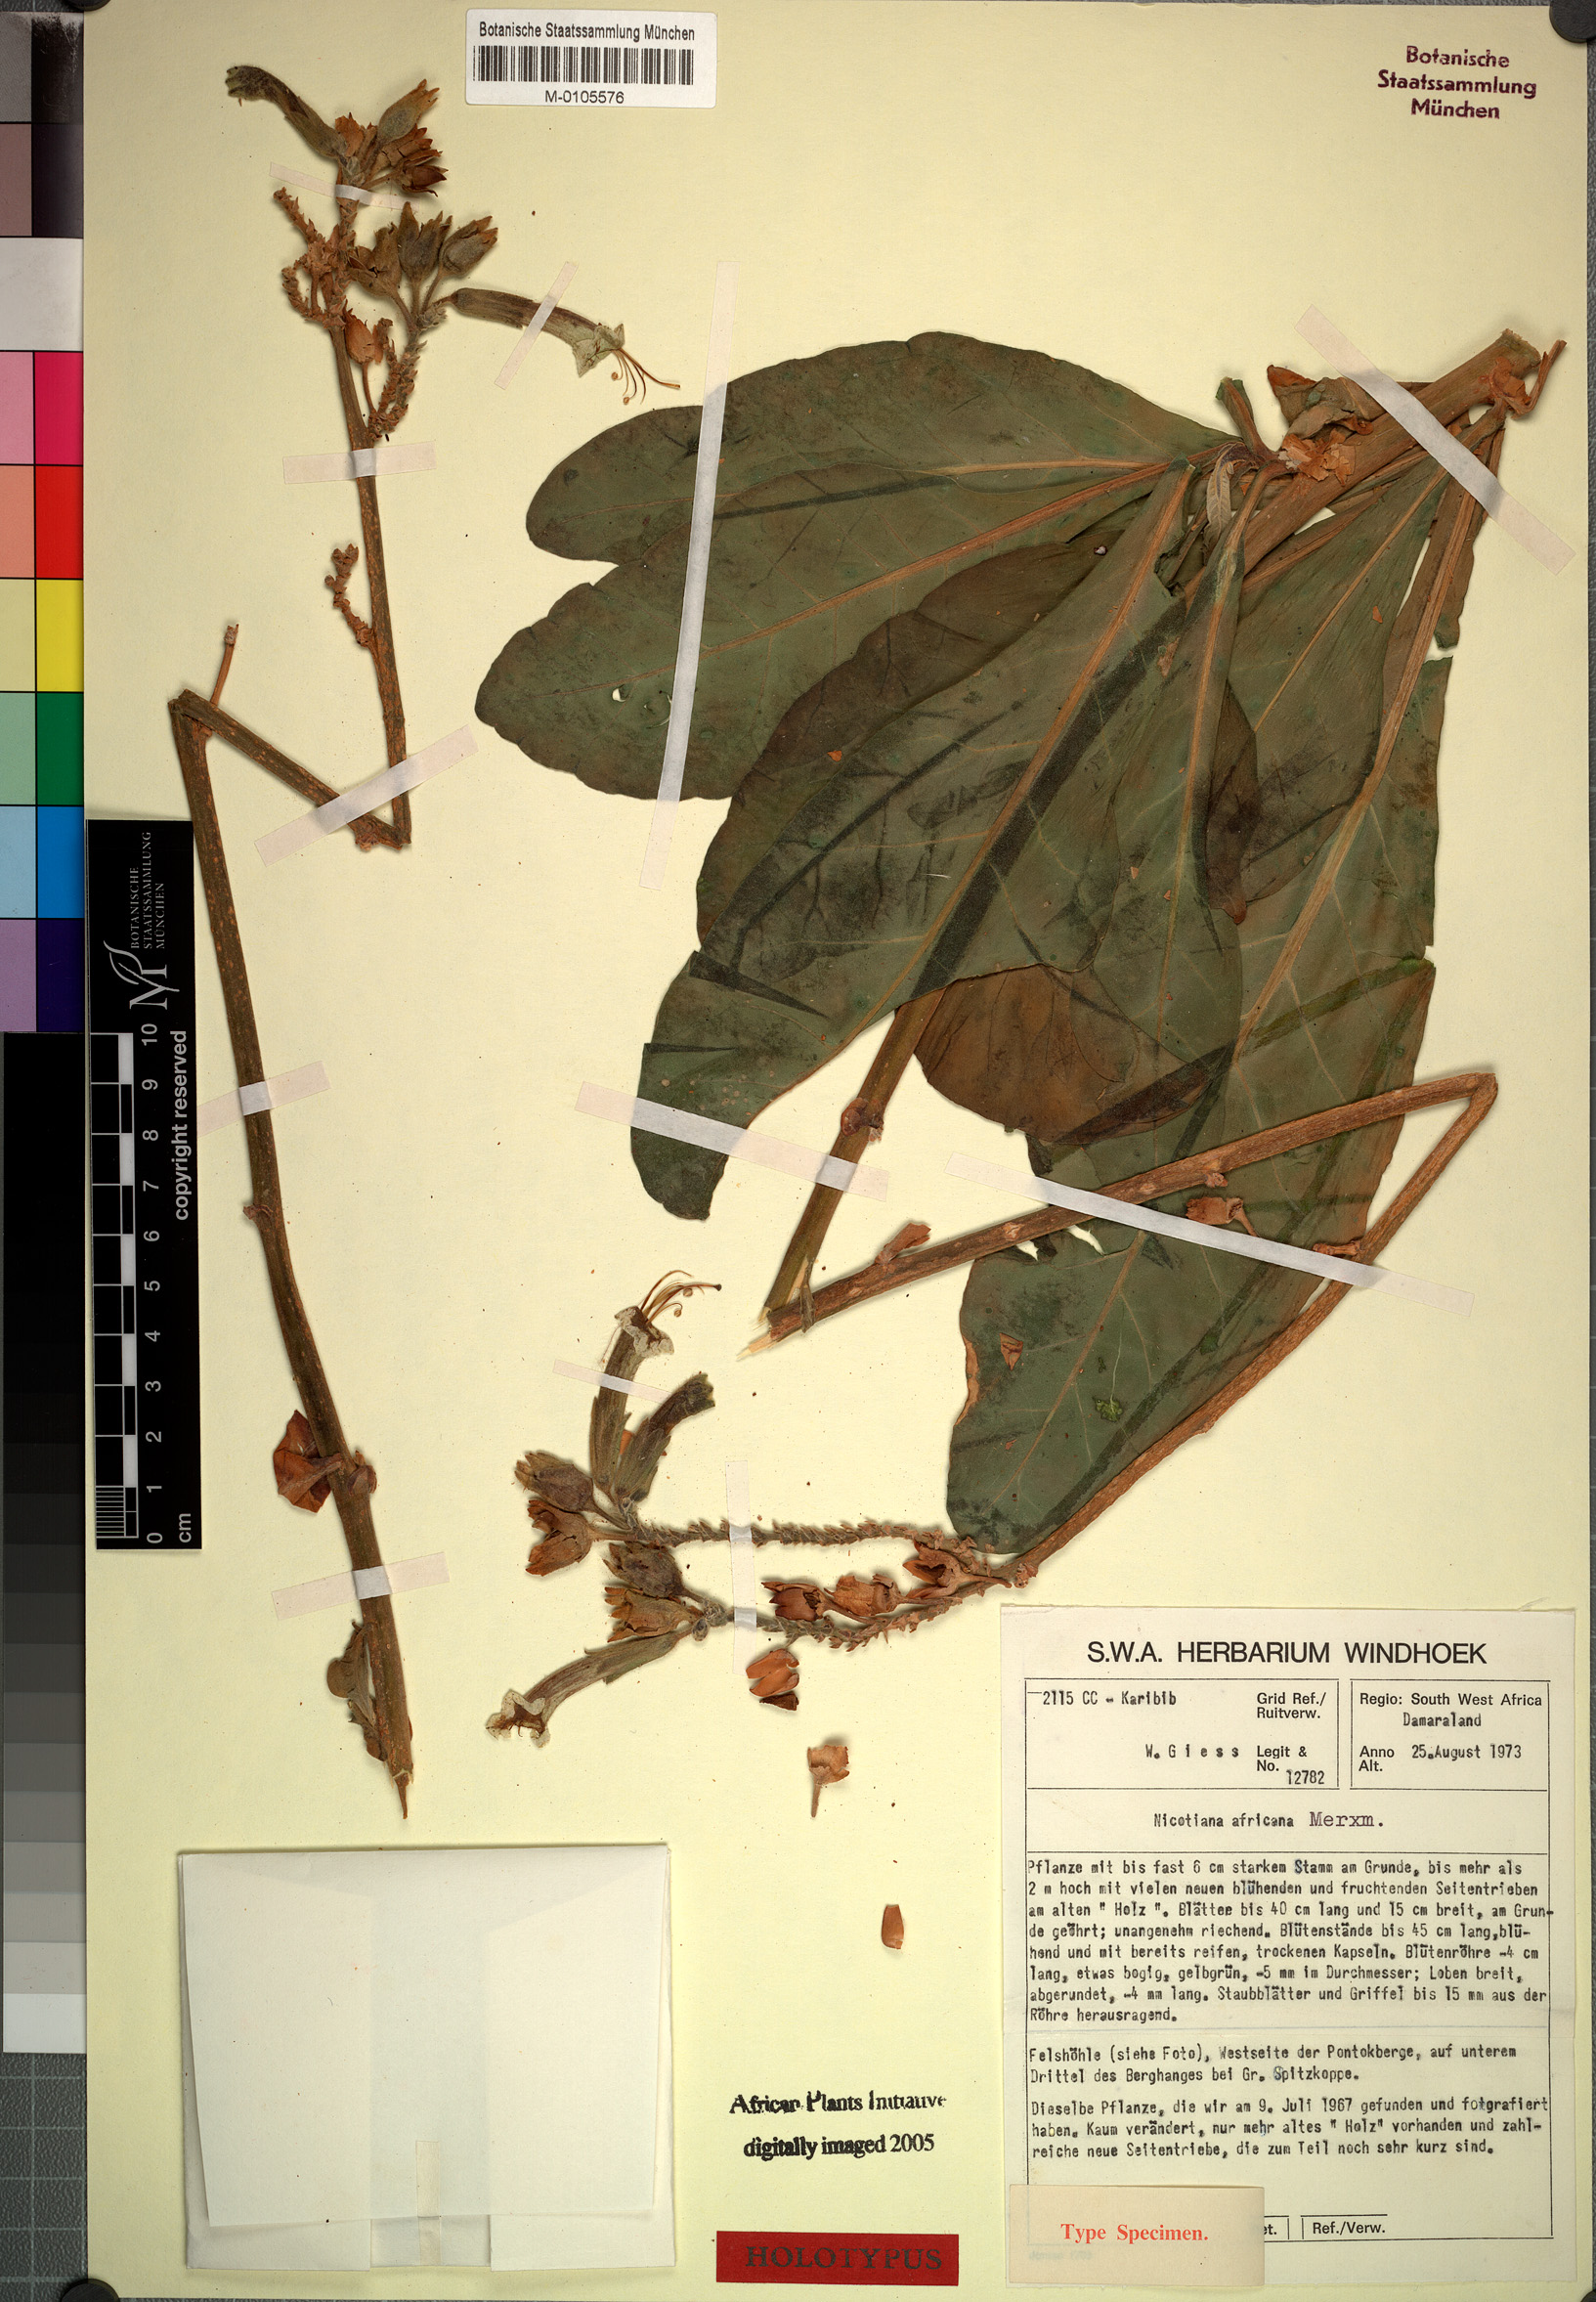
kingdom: Plantae
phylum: Tracheophyta
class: Magnoliopsida
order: Solanales
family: Solanaceae
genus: Nicotiana
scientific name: Nicotiana africana
